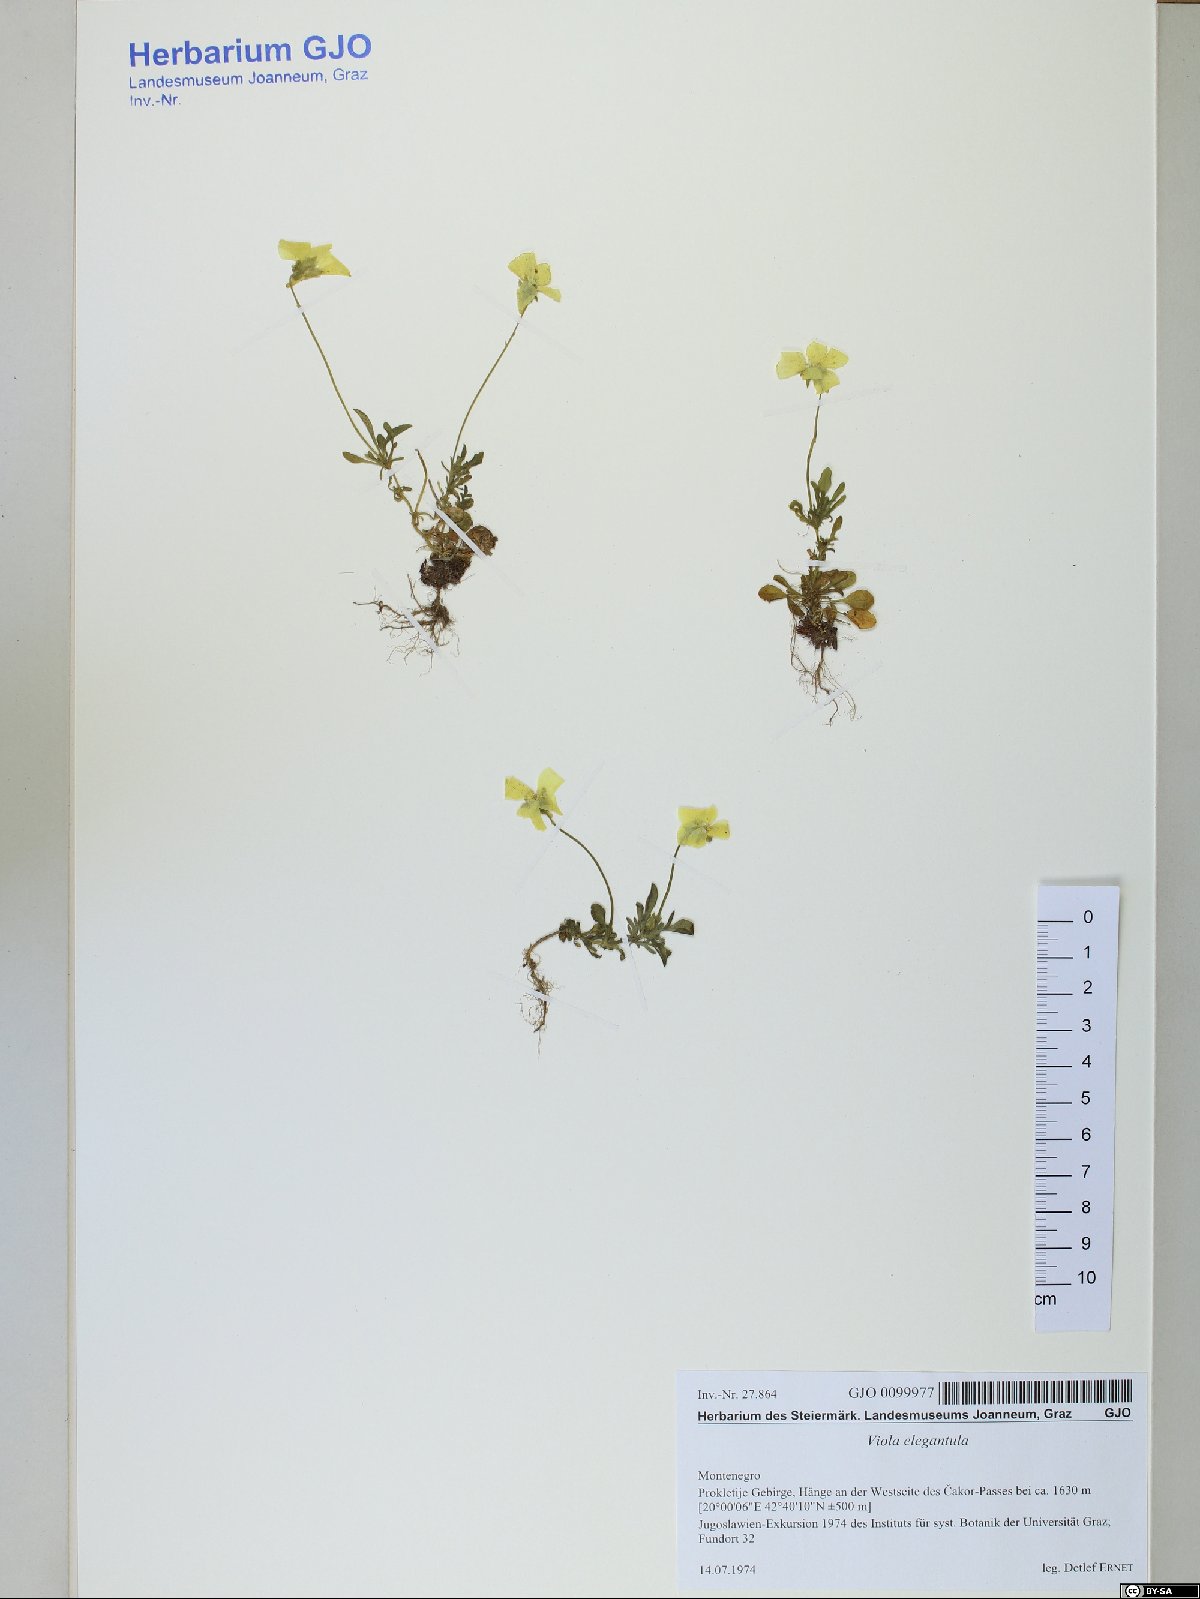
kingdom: Plantae
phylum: Tracheophyta
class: Magnoliopsida
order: Malpighiales
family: Violaceae
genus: Viola
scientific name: Viola elegantula
